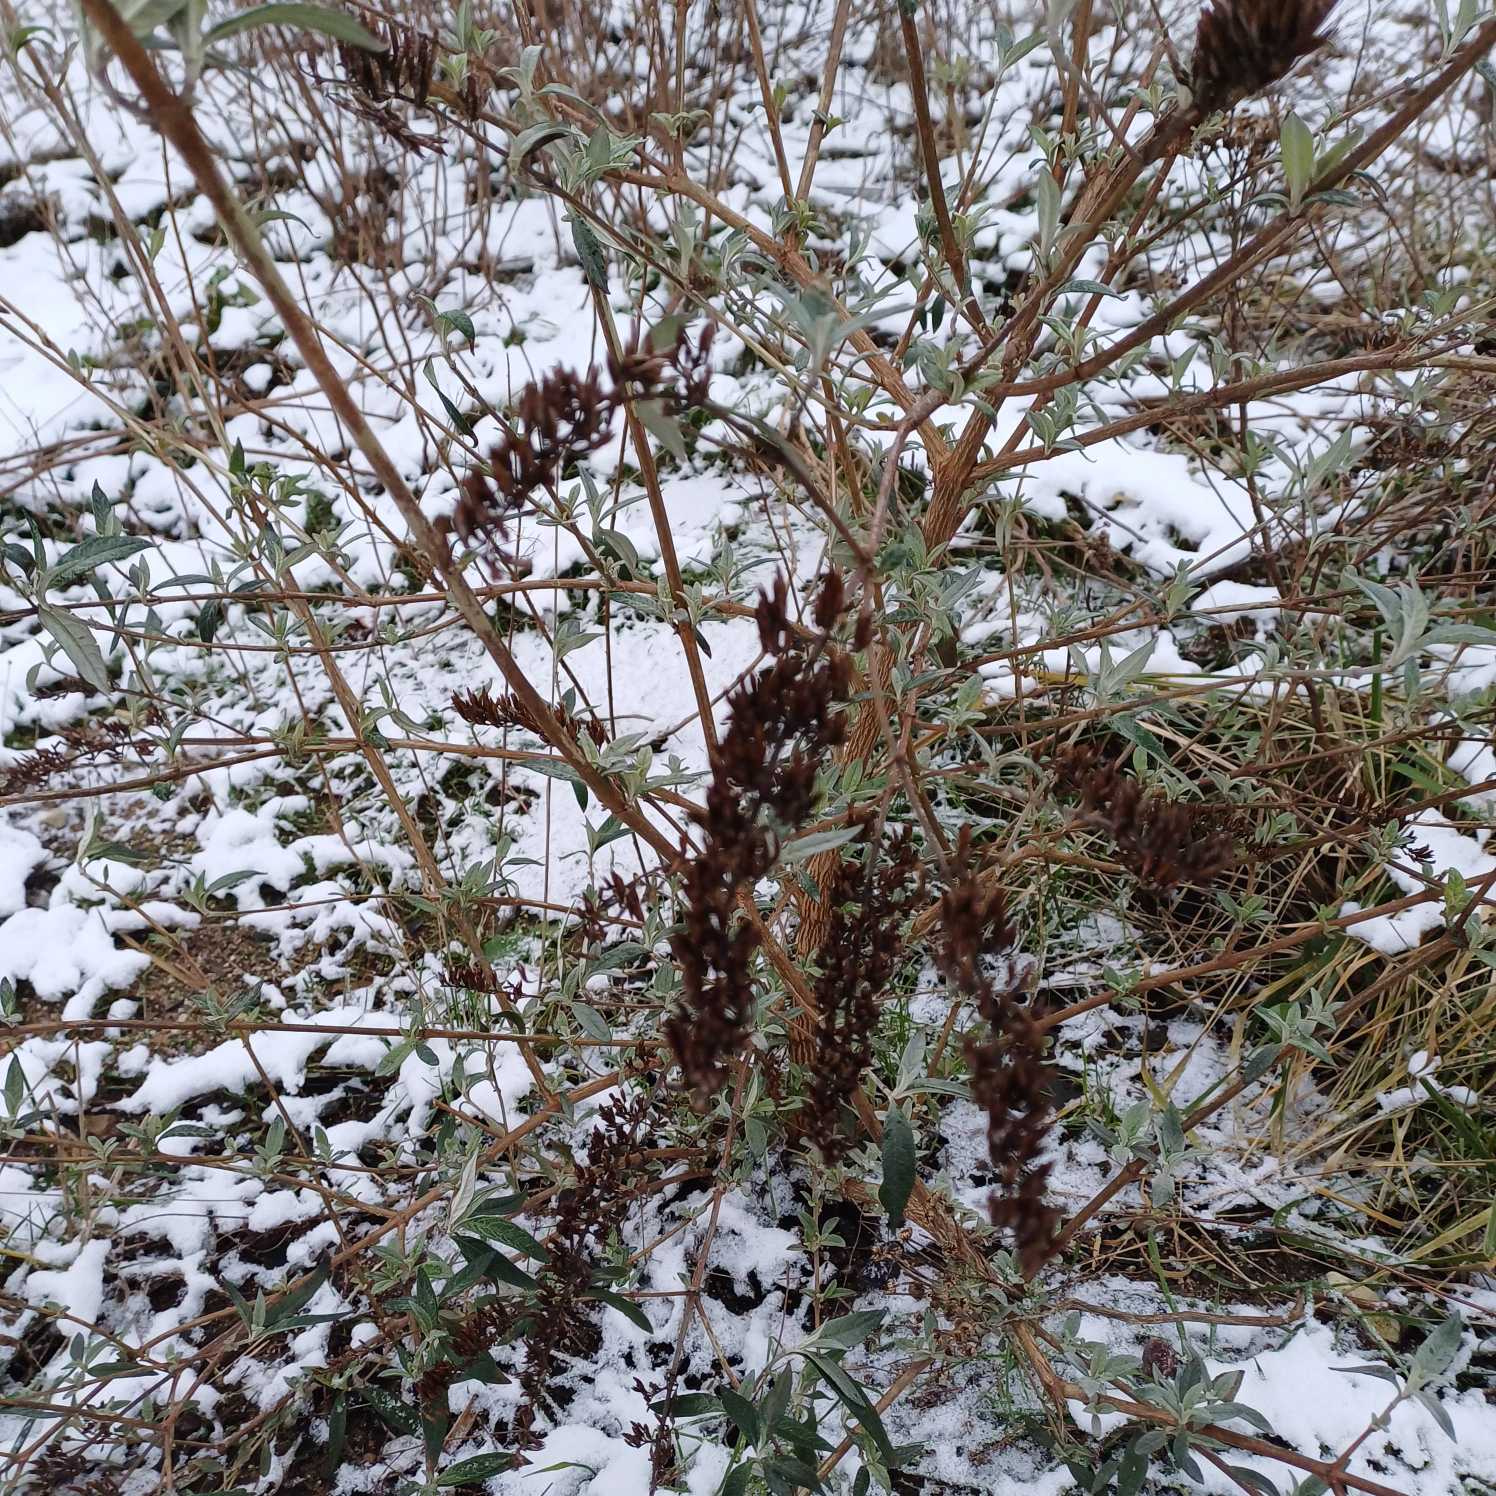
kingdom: Plantae
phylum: Tracheophyta
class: Magnoliopsida
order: Lamiales
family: Scrophulariaceae
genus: Buddleja
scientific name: Buddleja davidii
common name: Sommerfuglebusk
